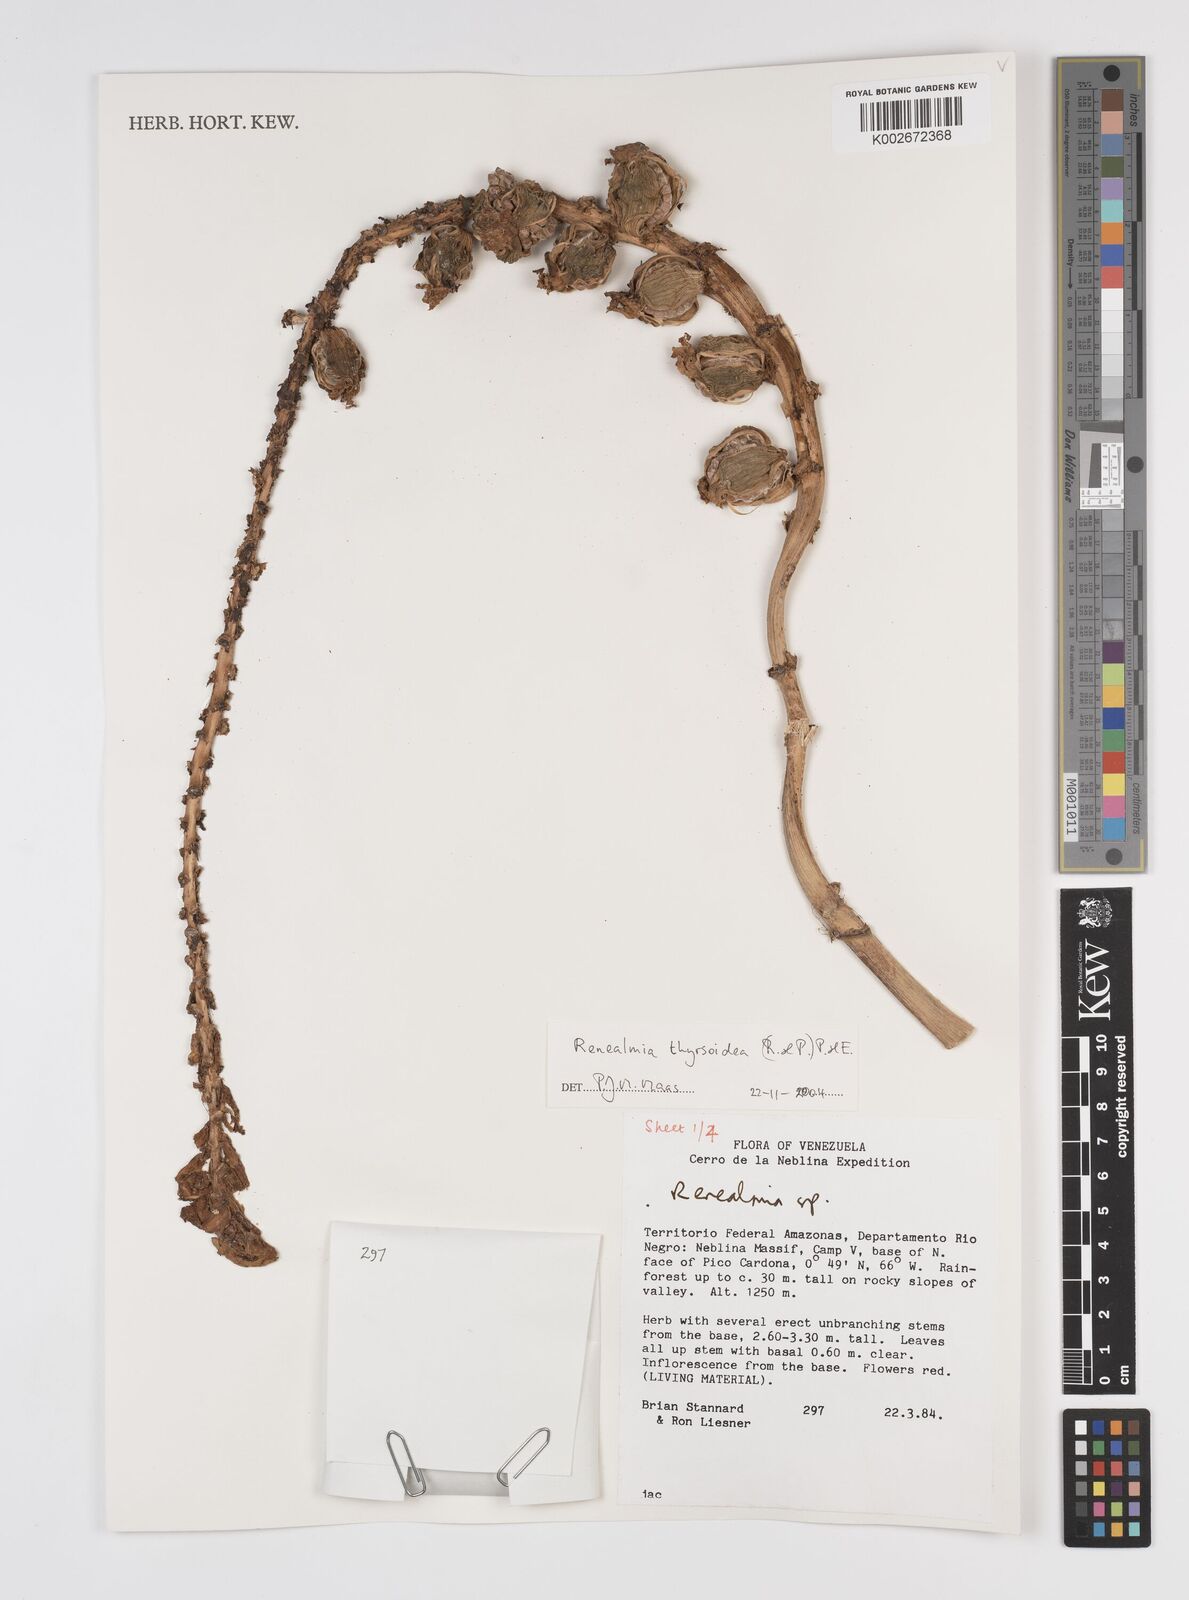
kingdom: Plantae
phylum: Tracheophyta
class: Liliopsida
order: Zingiberales
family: Zingiberaceae
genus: Renealmia
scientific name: Renealmia thyrsoidea
